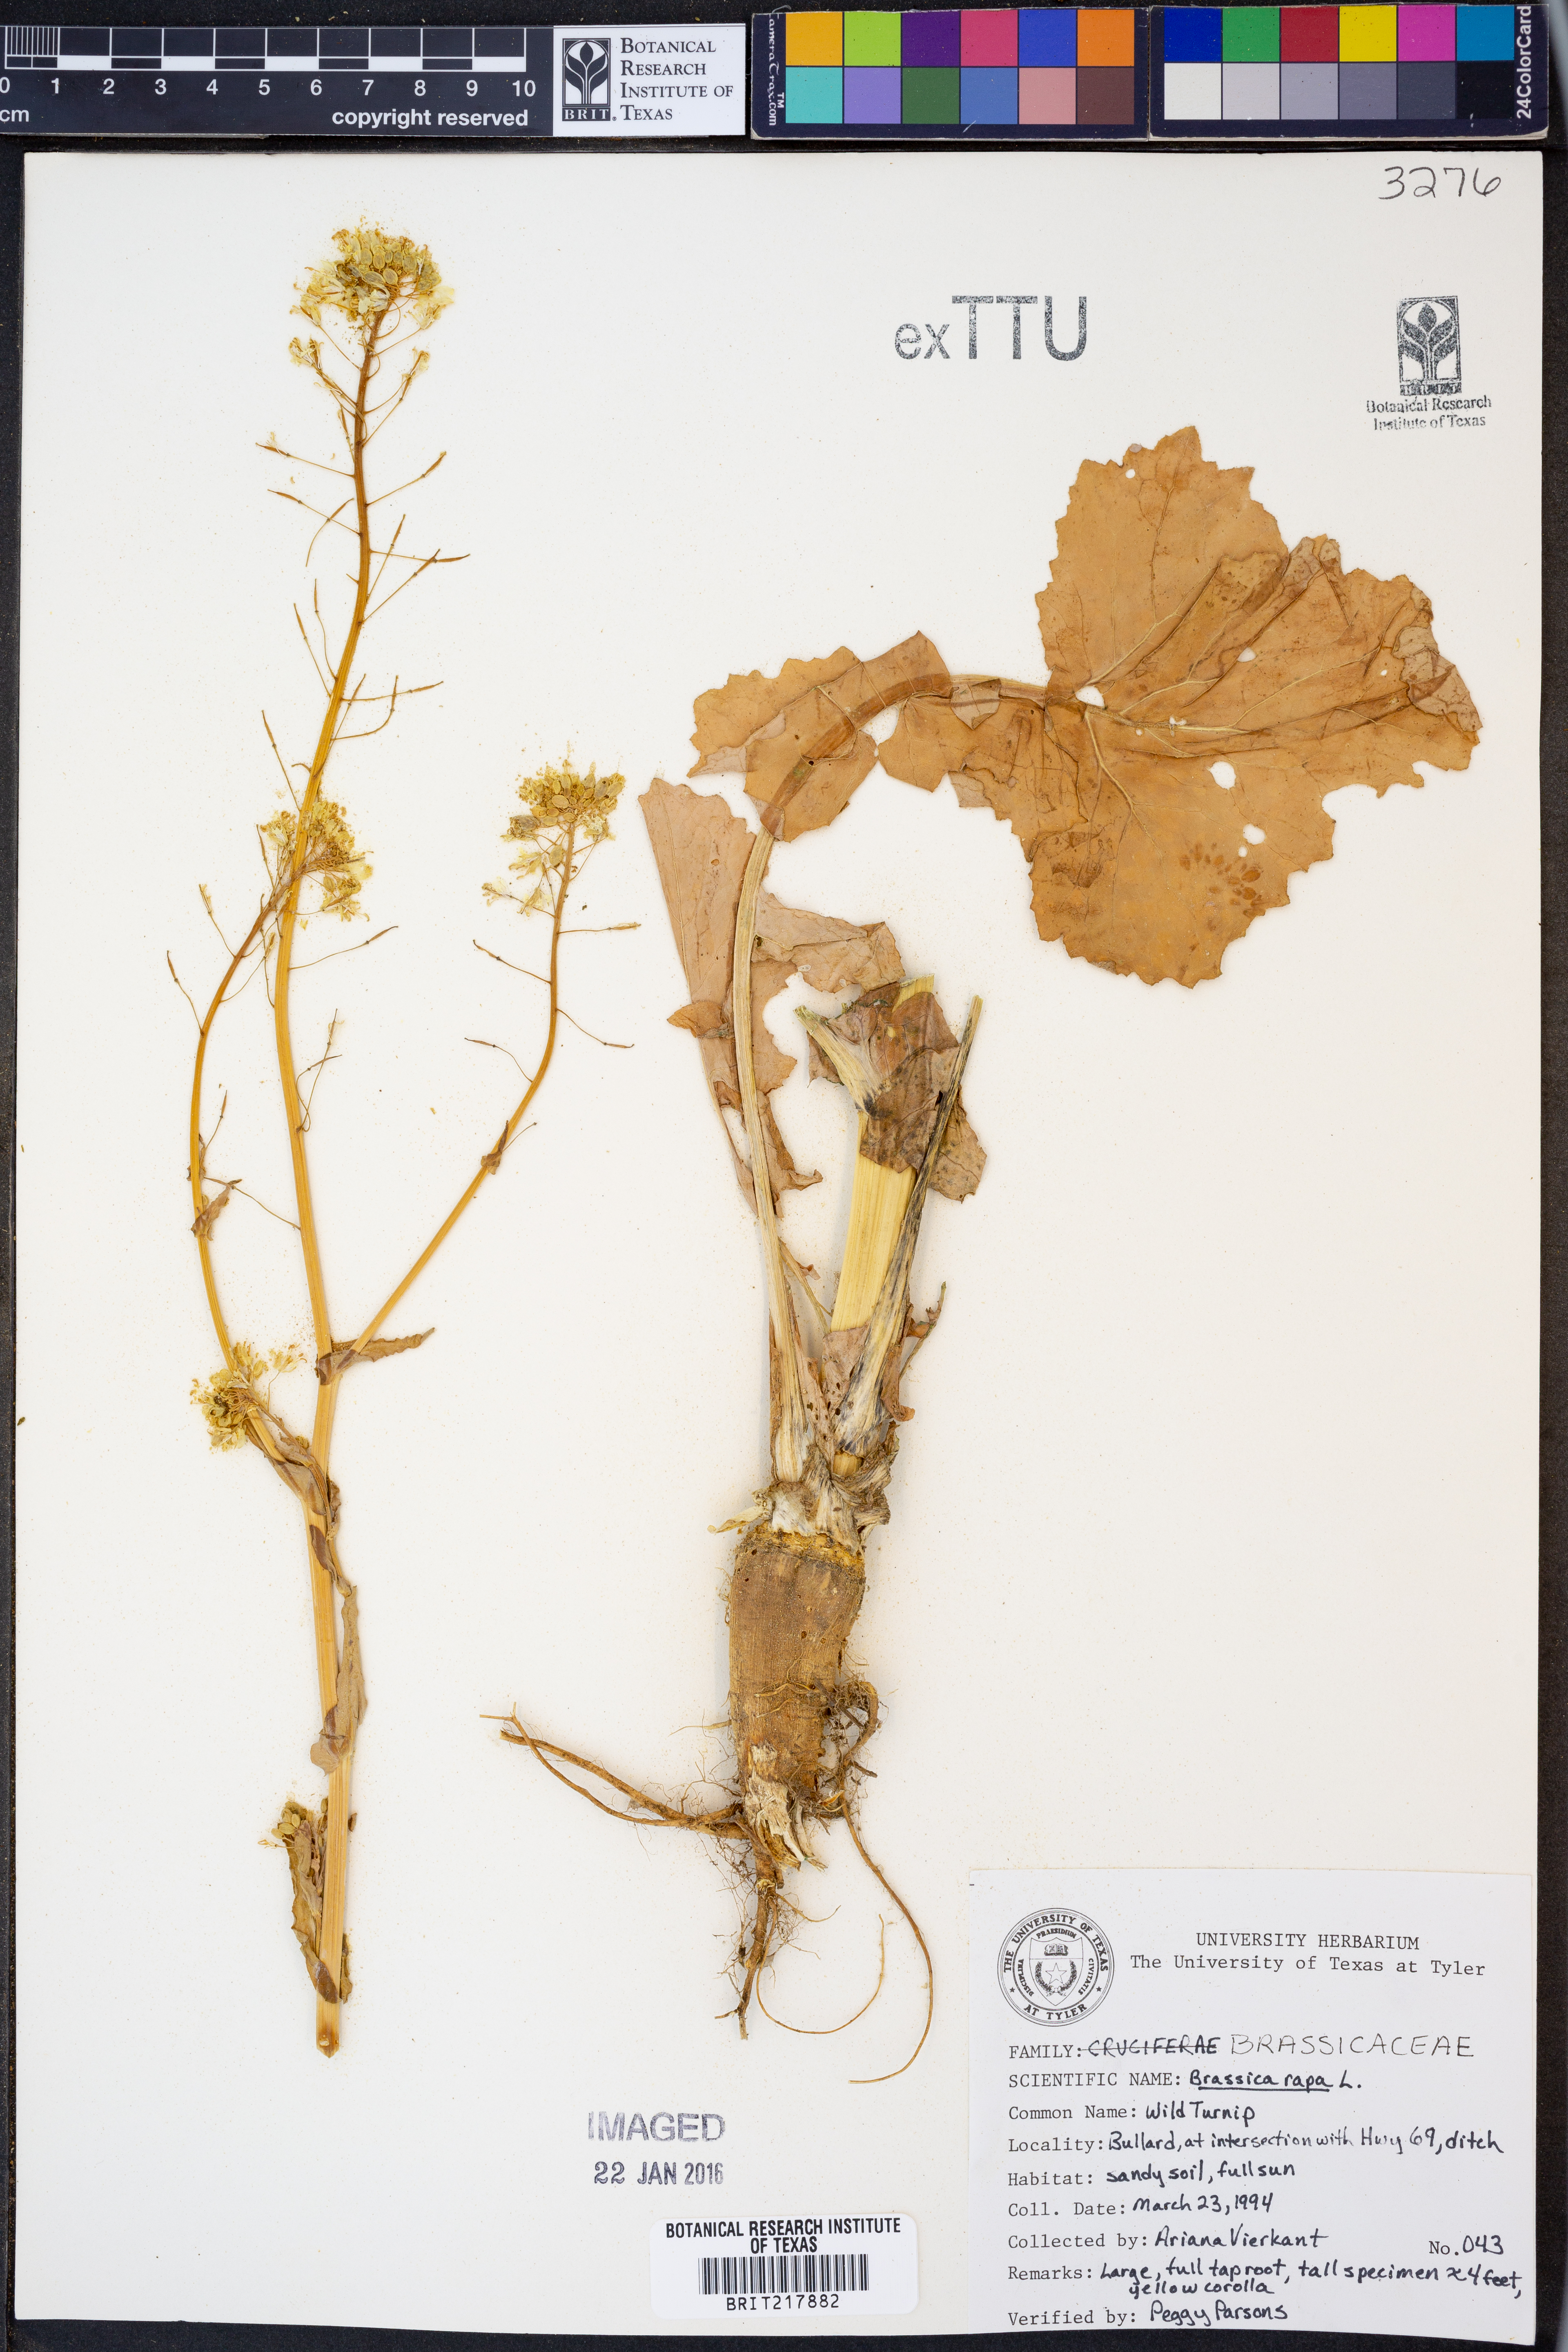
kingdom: Plantae
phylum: Tracheophyta
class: Magnoliopsida
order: Brassicales
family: Brassicaceae
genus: Brassica
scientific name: Brassica rapa
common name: Field mustard
